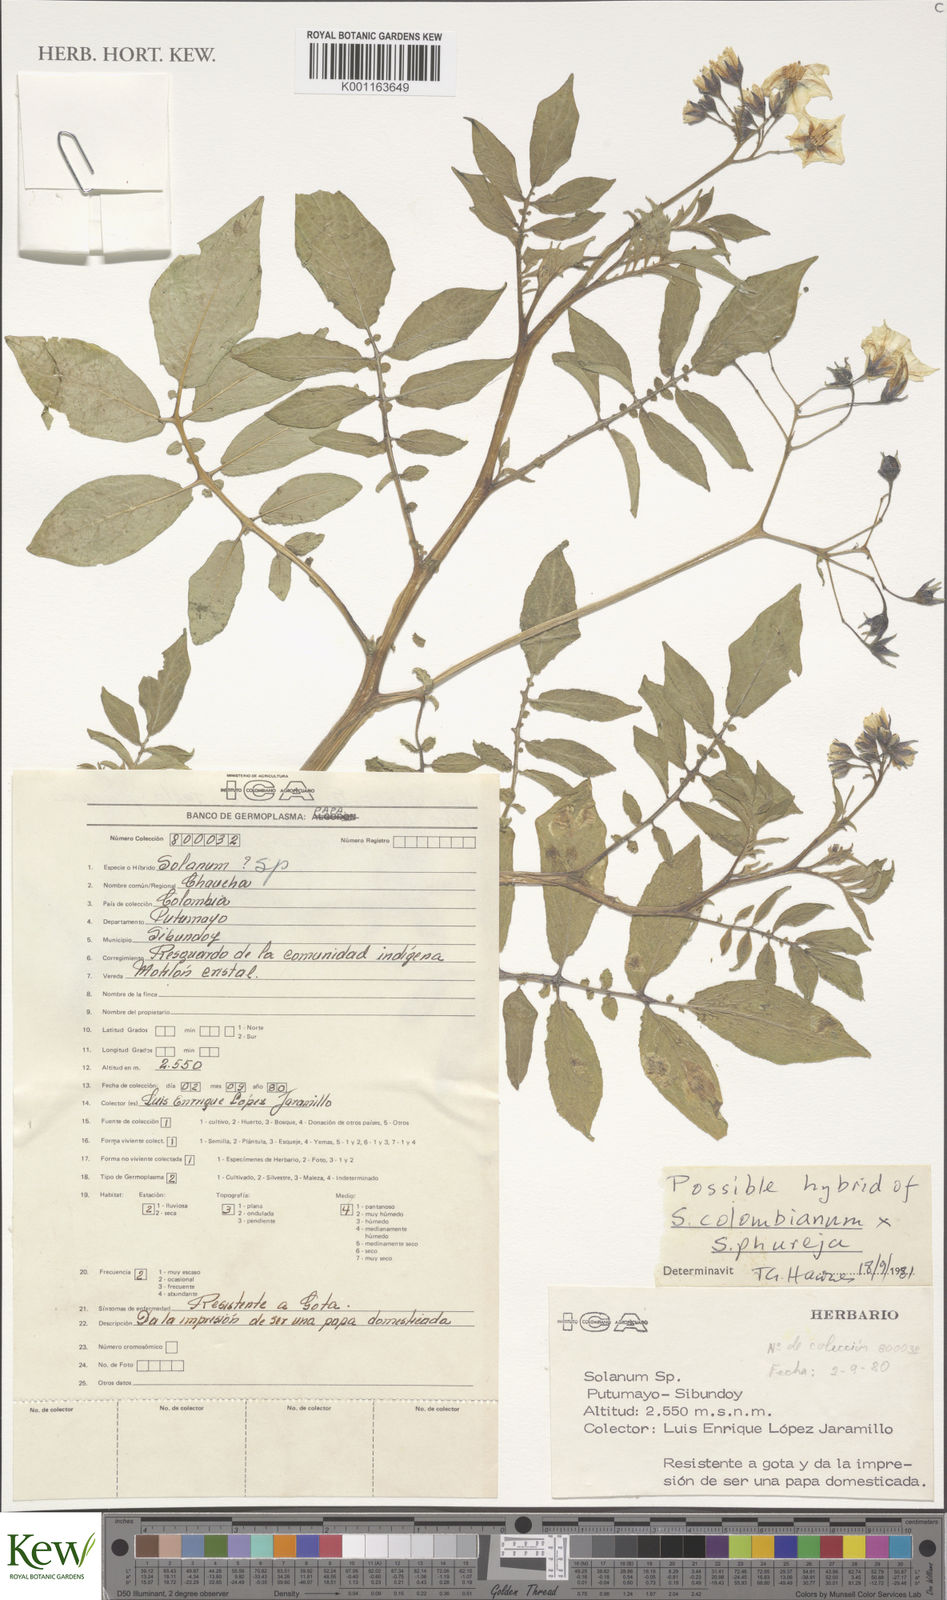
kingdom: Plantae
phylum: Tracheophyta
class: Magnoliopsida
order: Solanales
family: Solanaceae
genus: Solanum
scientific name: Solanum colombianum
